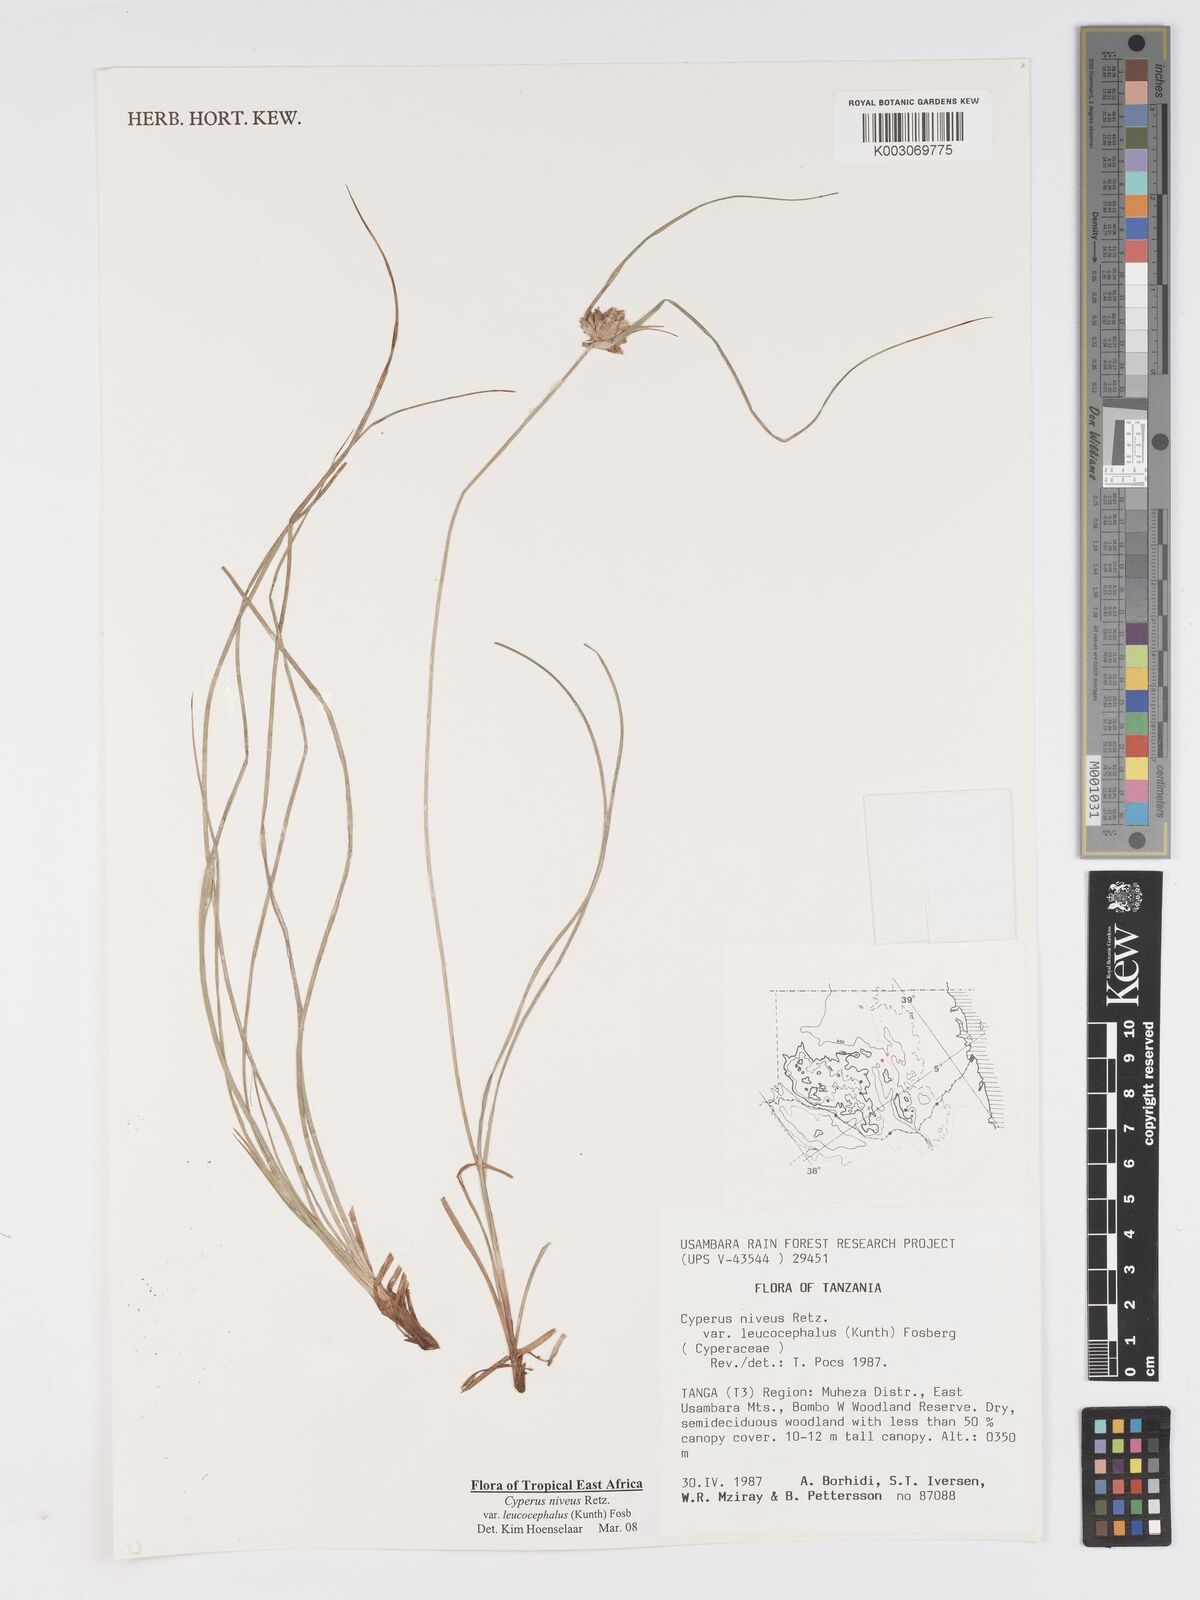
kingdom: Plantae
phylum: Tracheophyta
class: Liliopsida
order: Poales
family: Cyperaceae
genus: Cyperus
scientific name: Cyperus niveus
